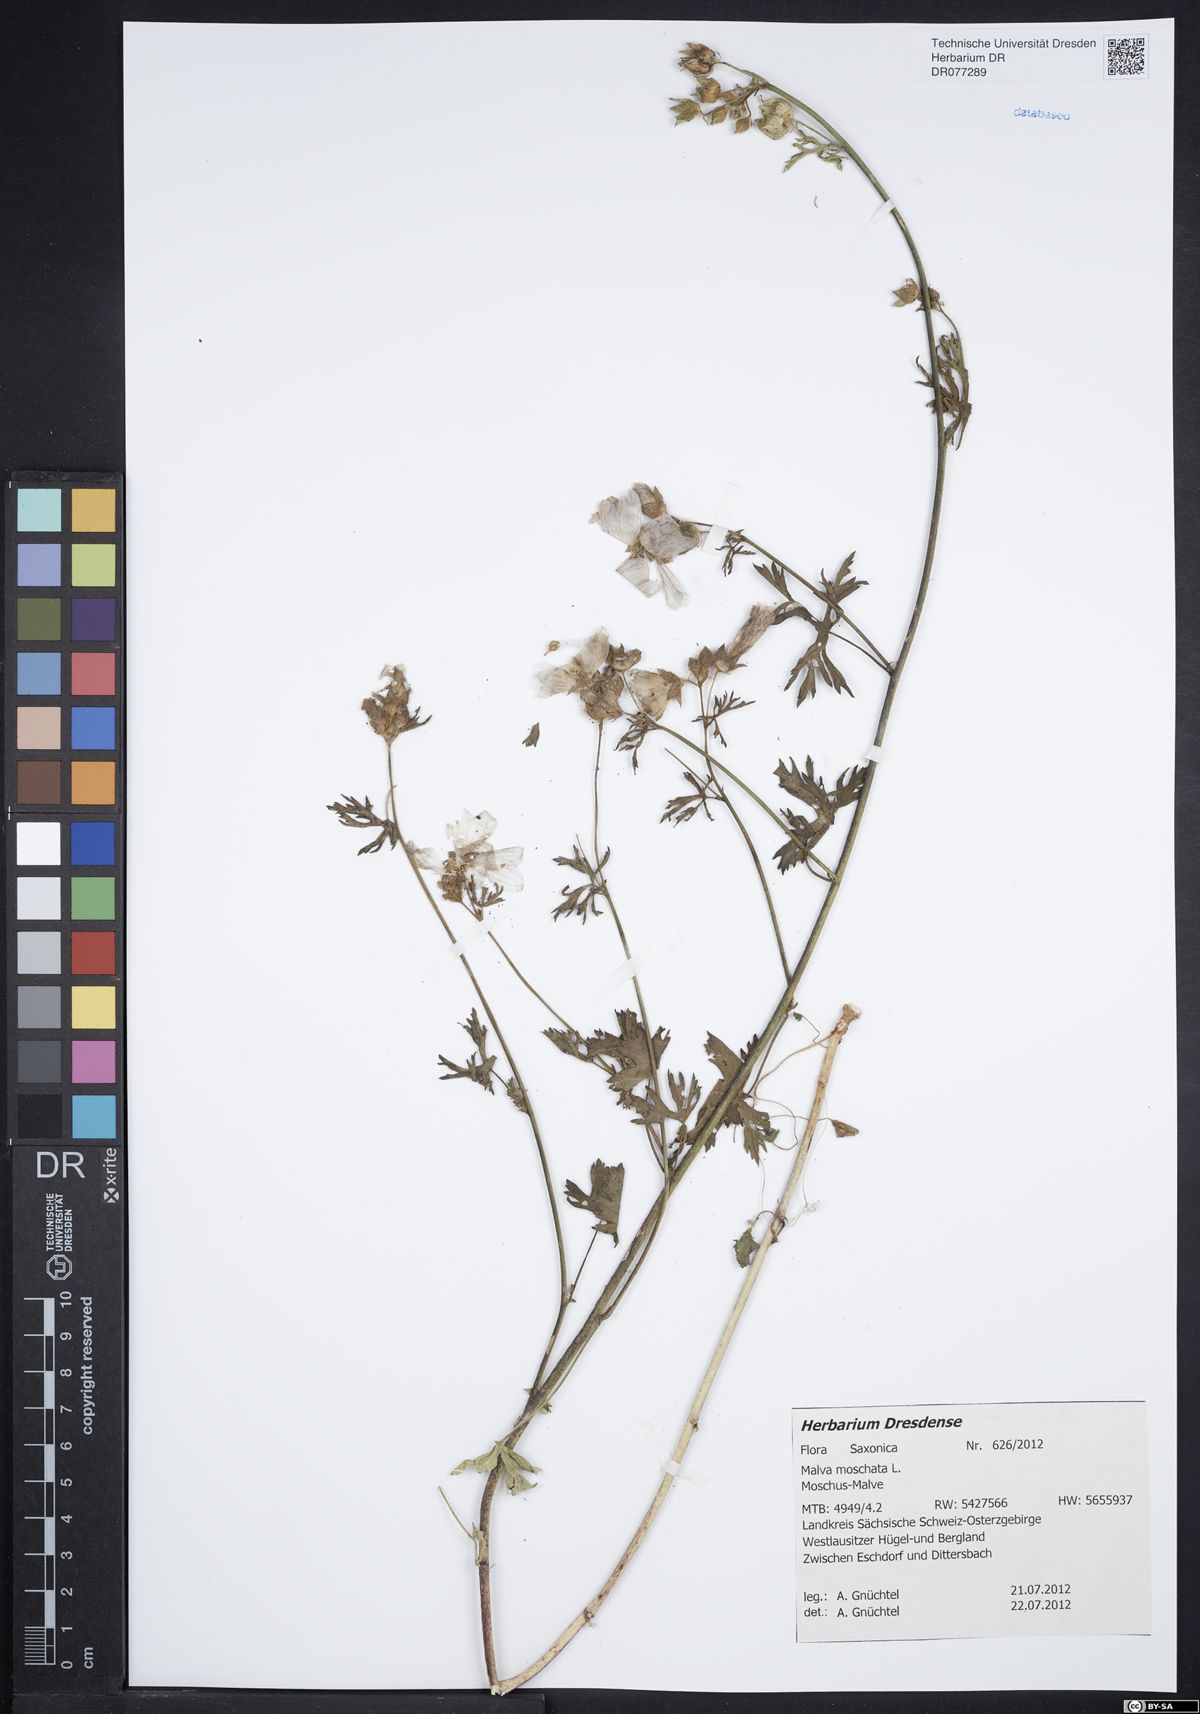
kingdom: Plantae
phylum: Tracheophyta
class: Magnoliopsida
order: Malvales
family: Malvaceae
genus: Malva
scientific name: Malva moschata
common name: Musk mallow
